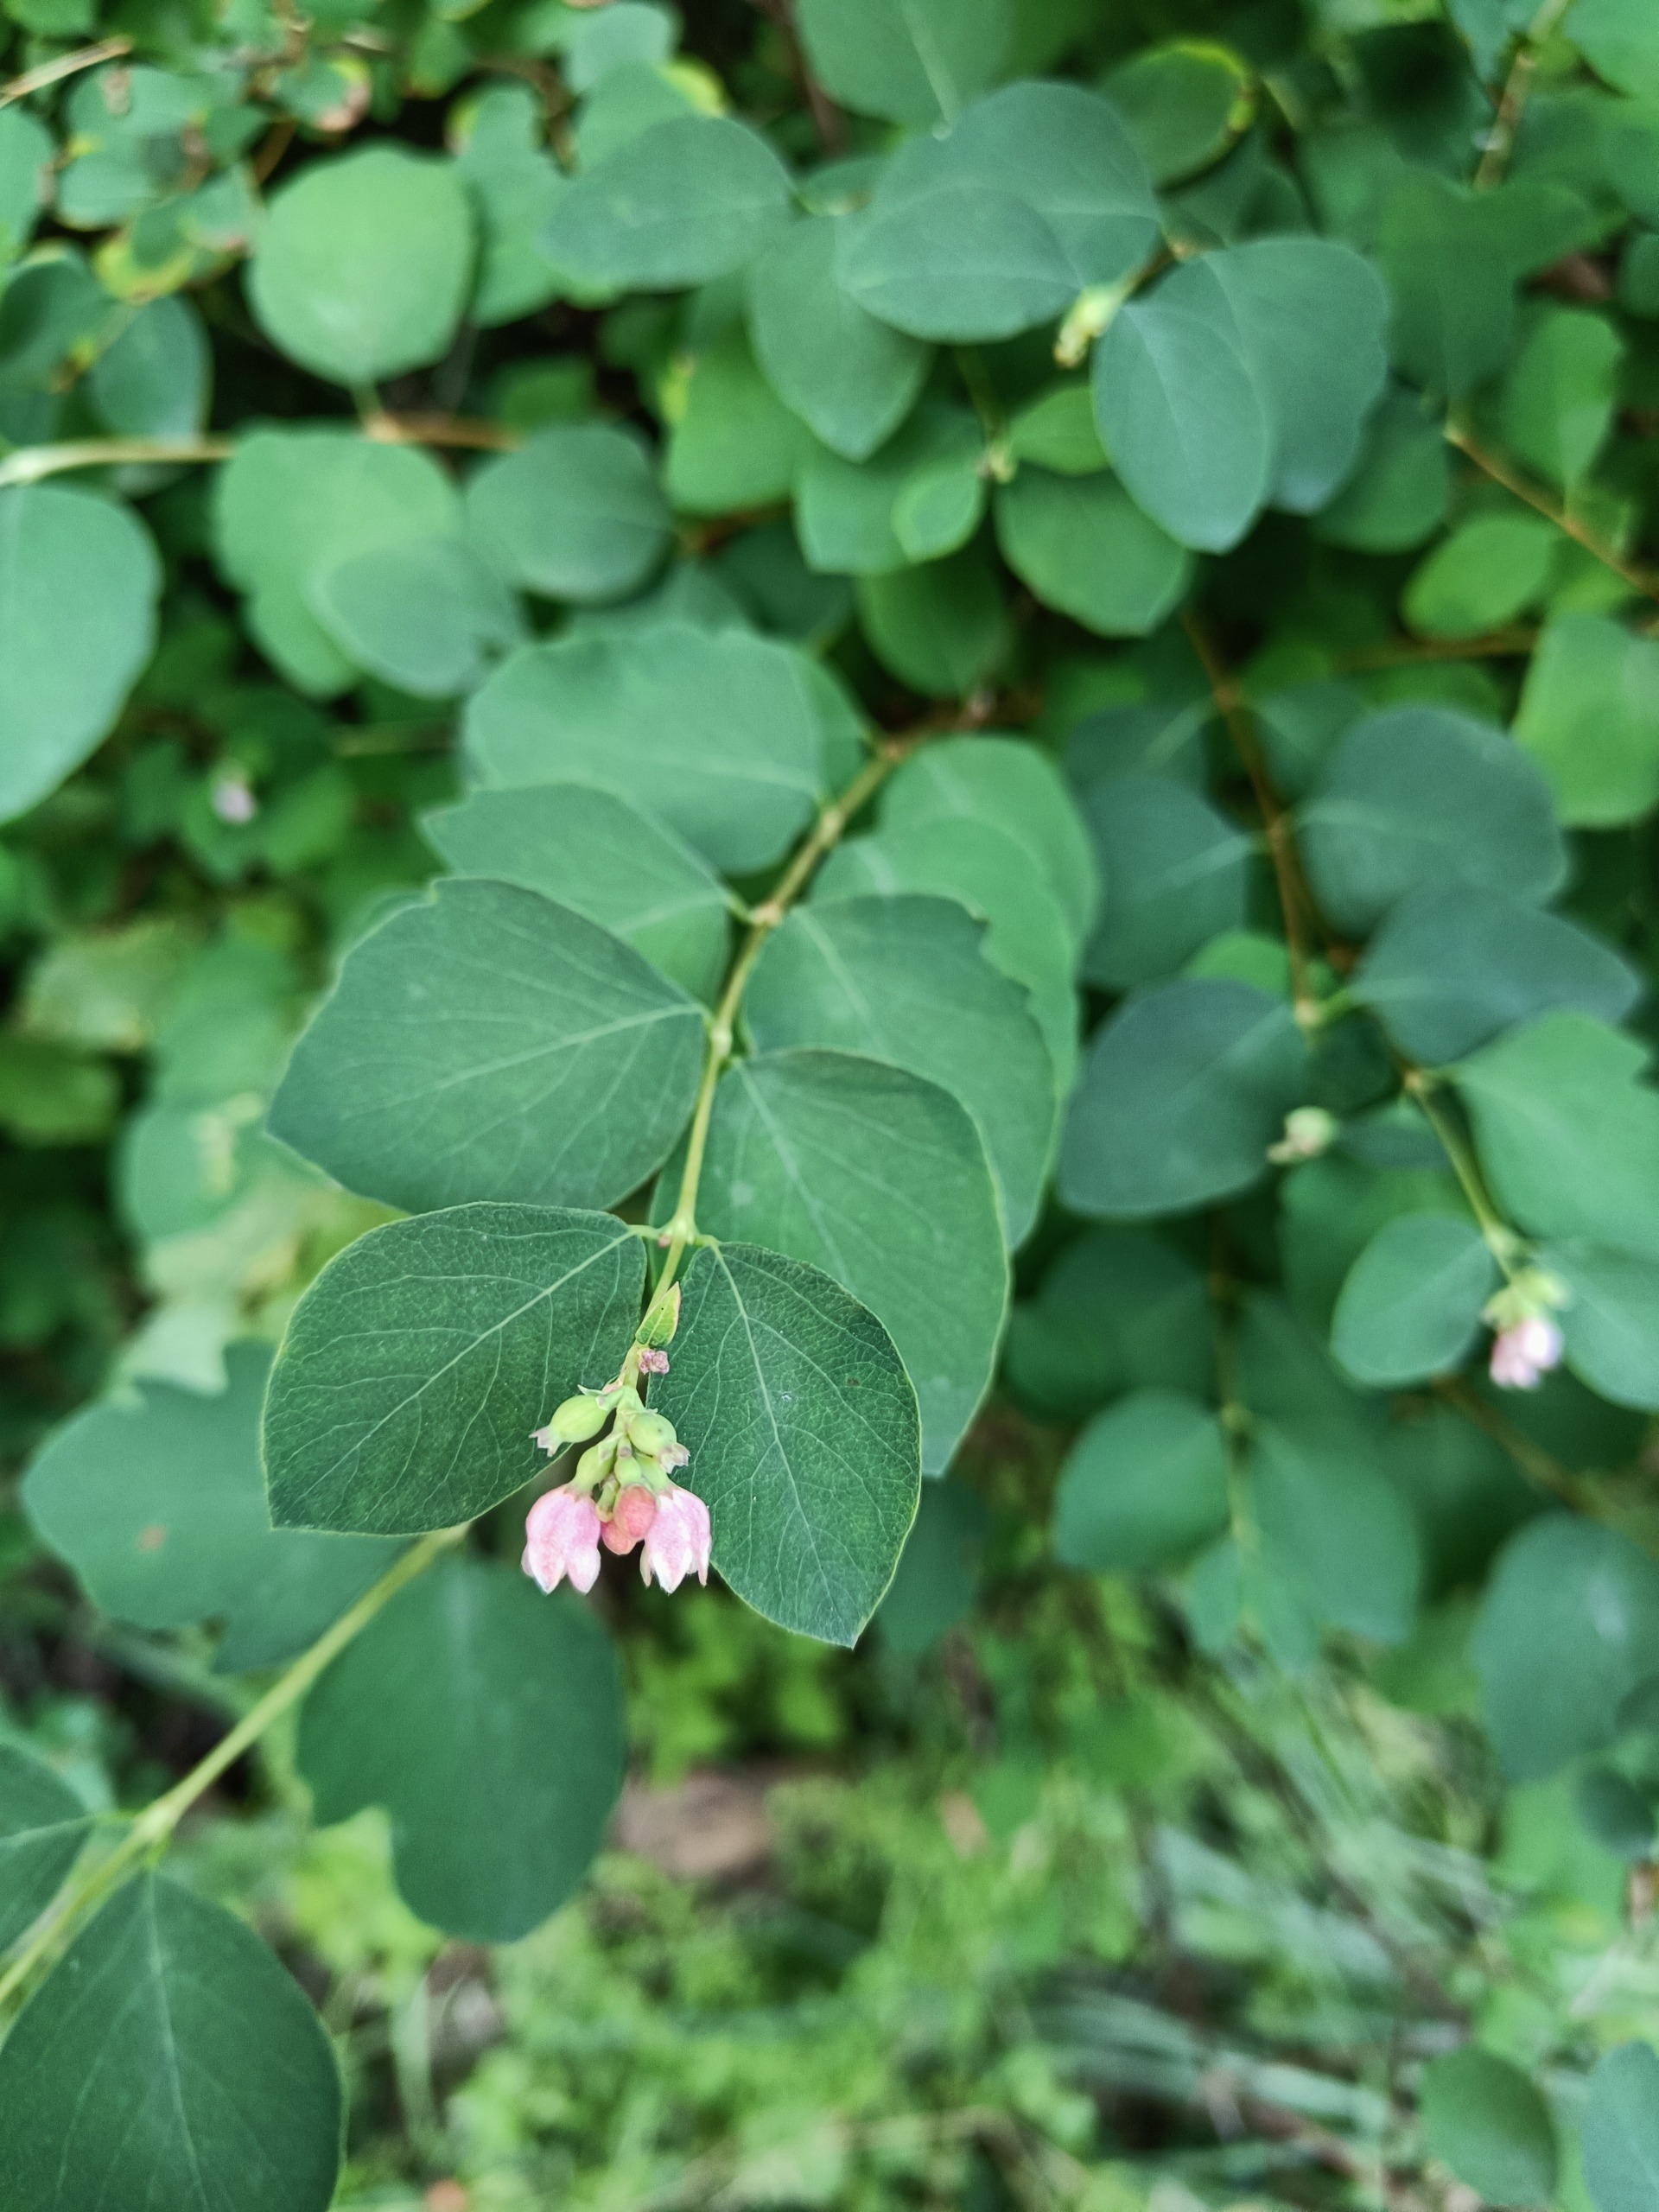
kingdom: Plantae
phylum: Tracheophyta
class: Magnoliopsida
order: Dipsacales
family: Caprifoliaceae
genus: Symphoricarpos
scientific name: Symphoricarpos albus
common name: Almindelig snebær
